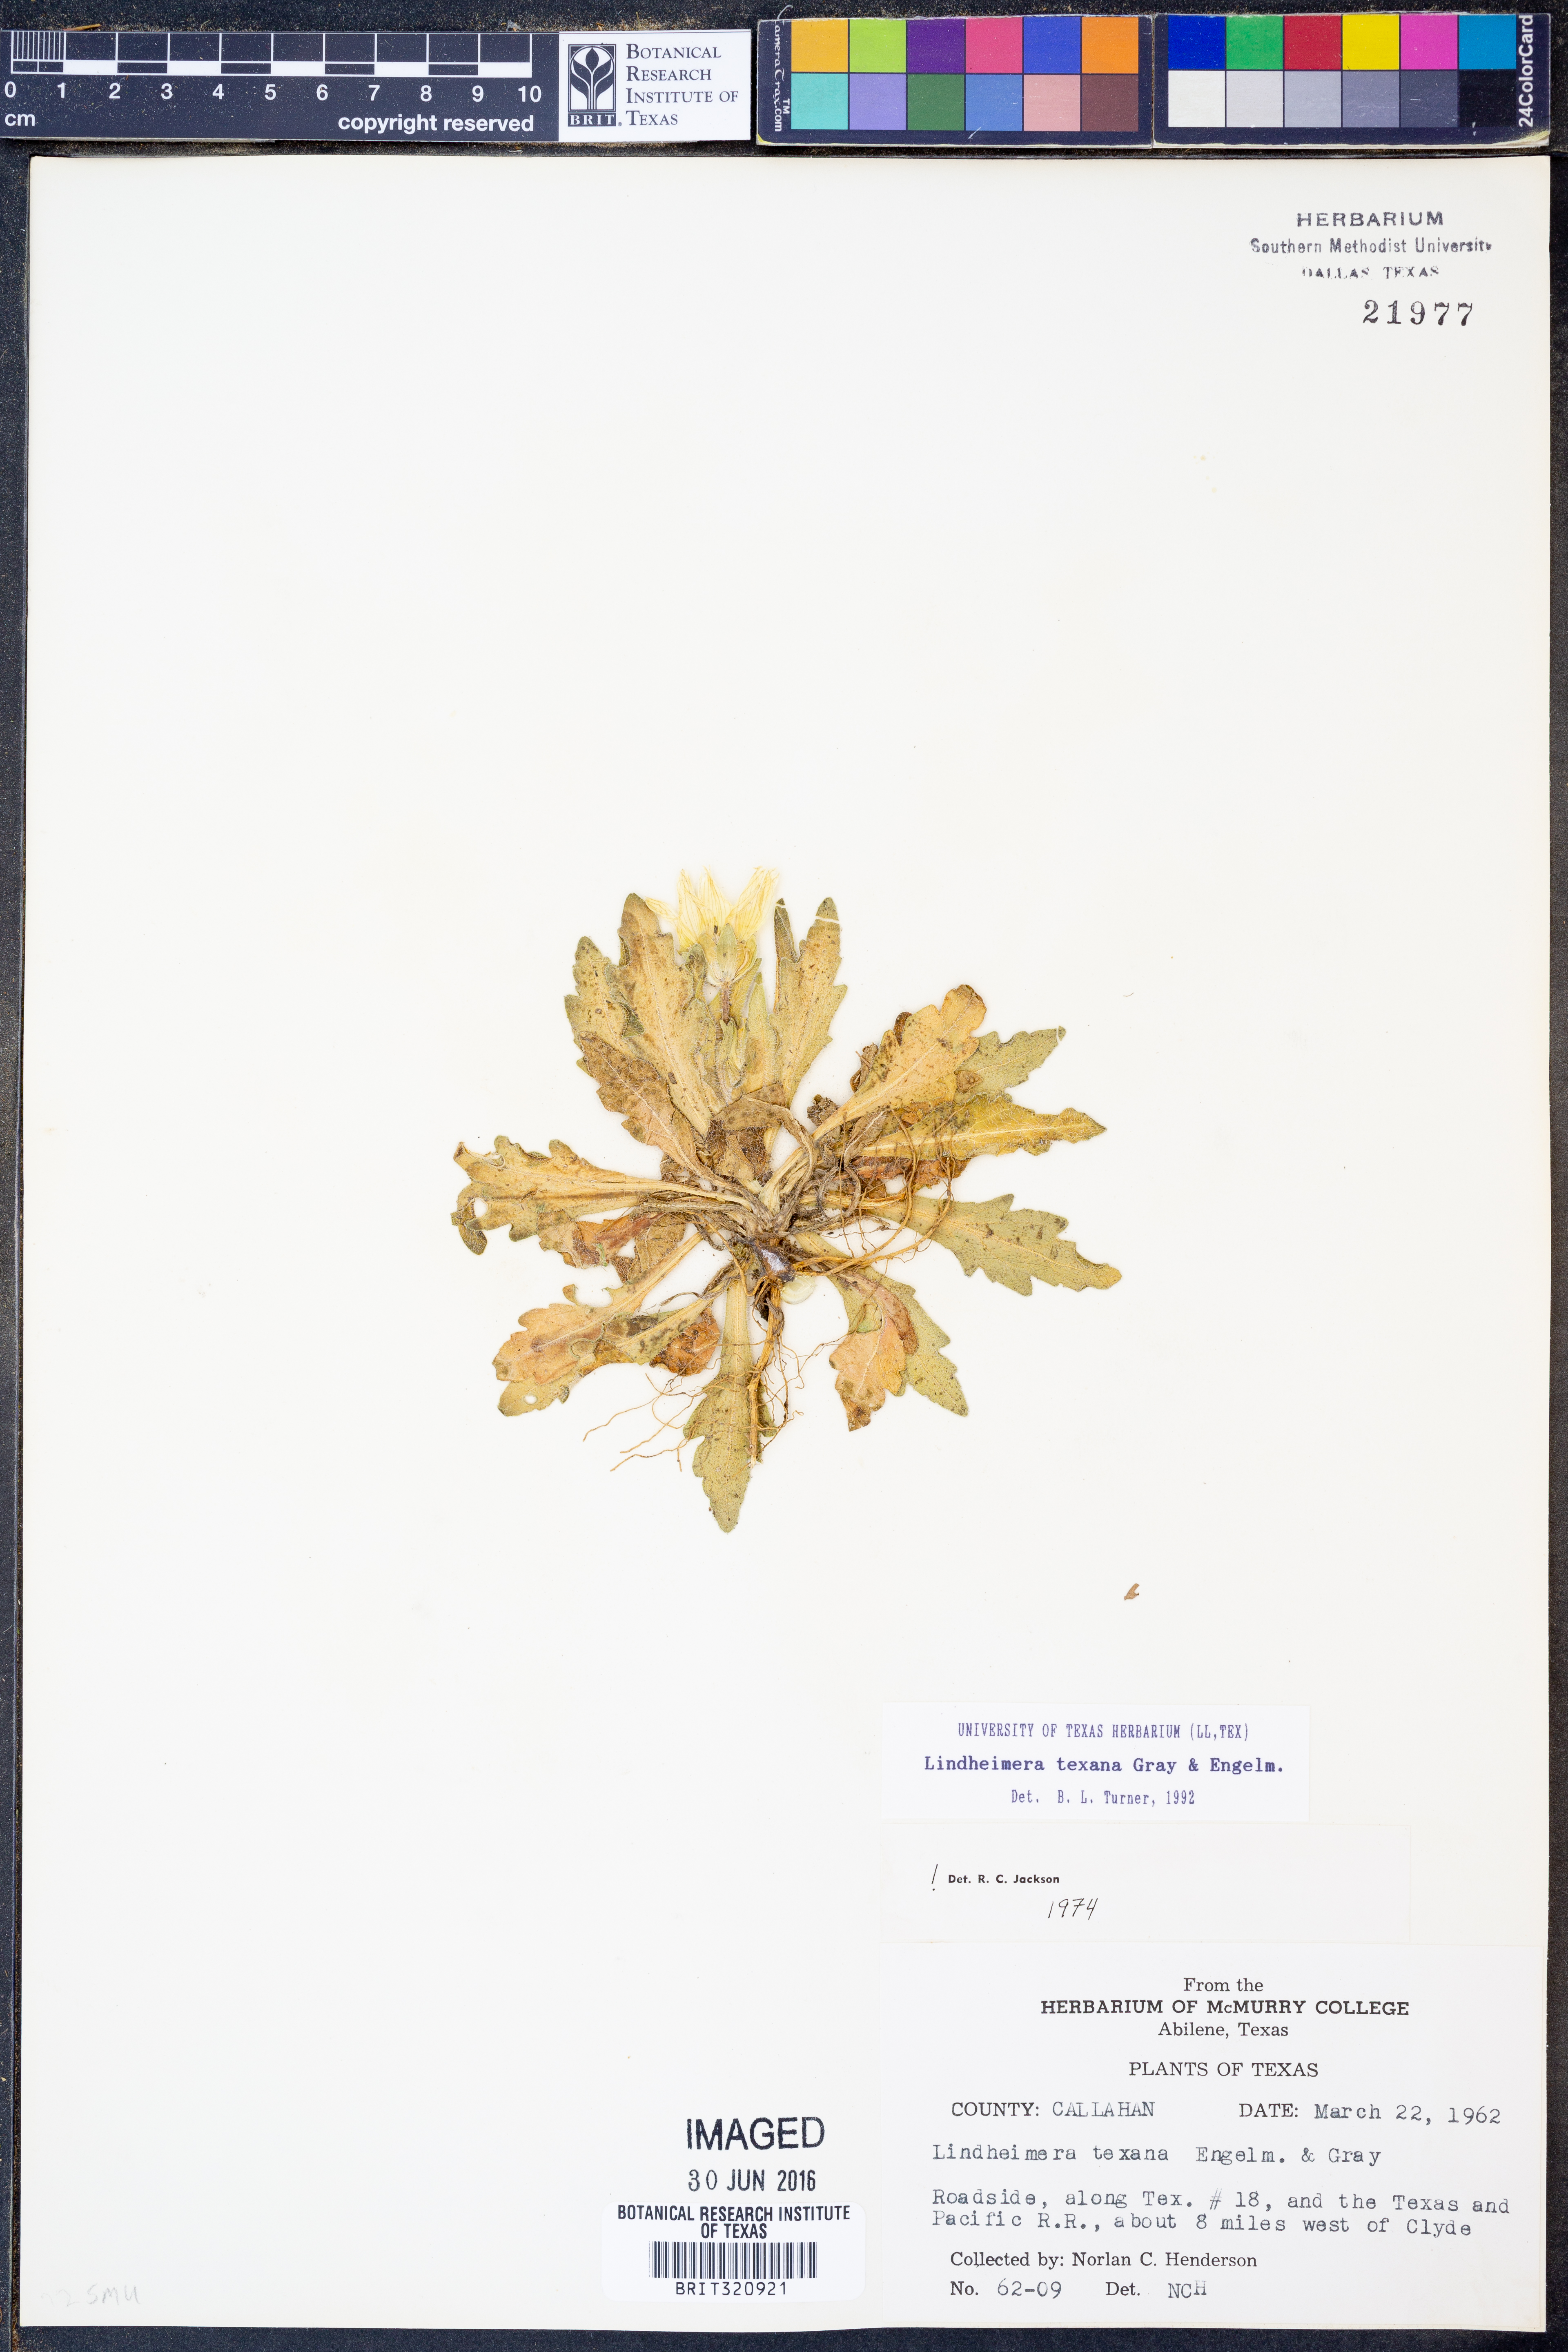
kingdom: Plantae
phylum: Tracheophyta
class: Magnoliopsida
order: Asterales
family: Asteraceae
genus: Lindheimera
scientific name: Lindheimera texana
